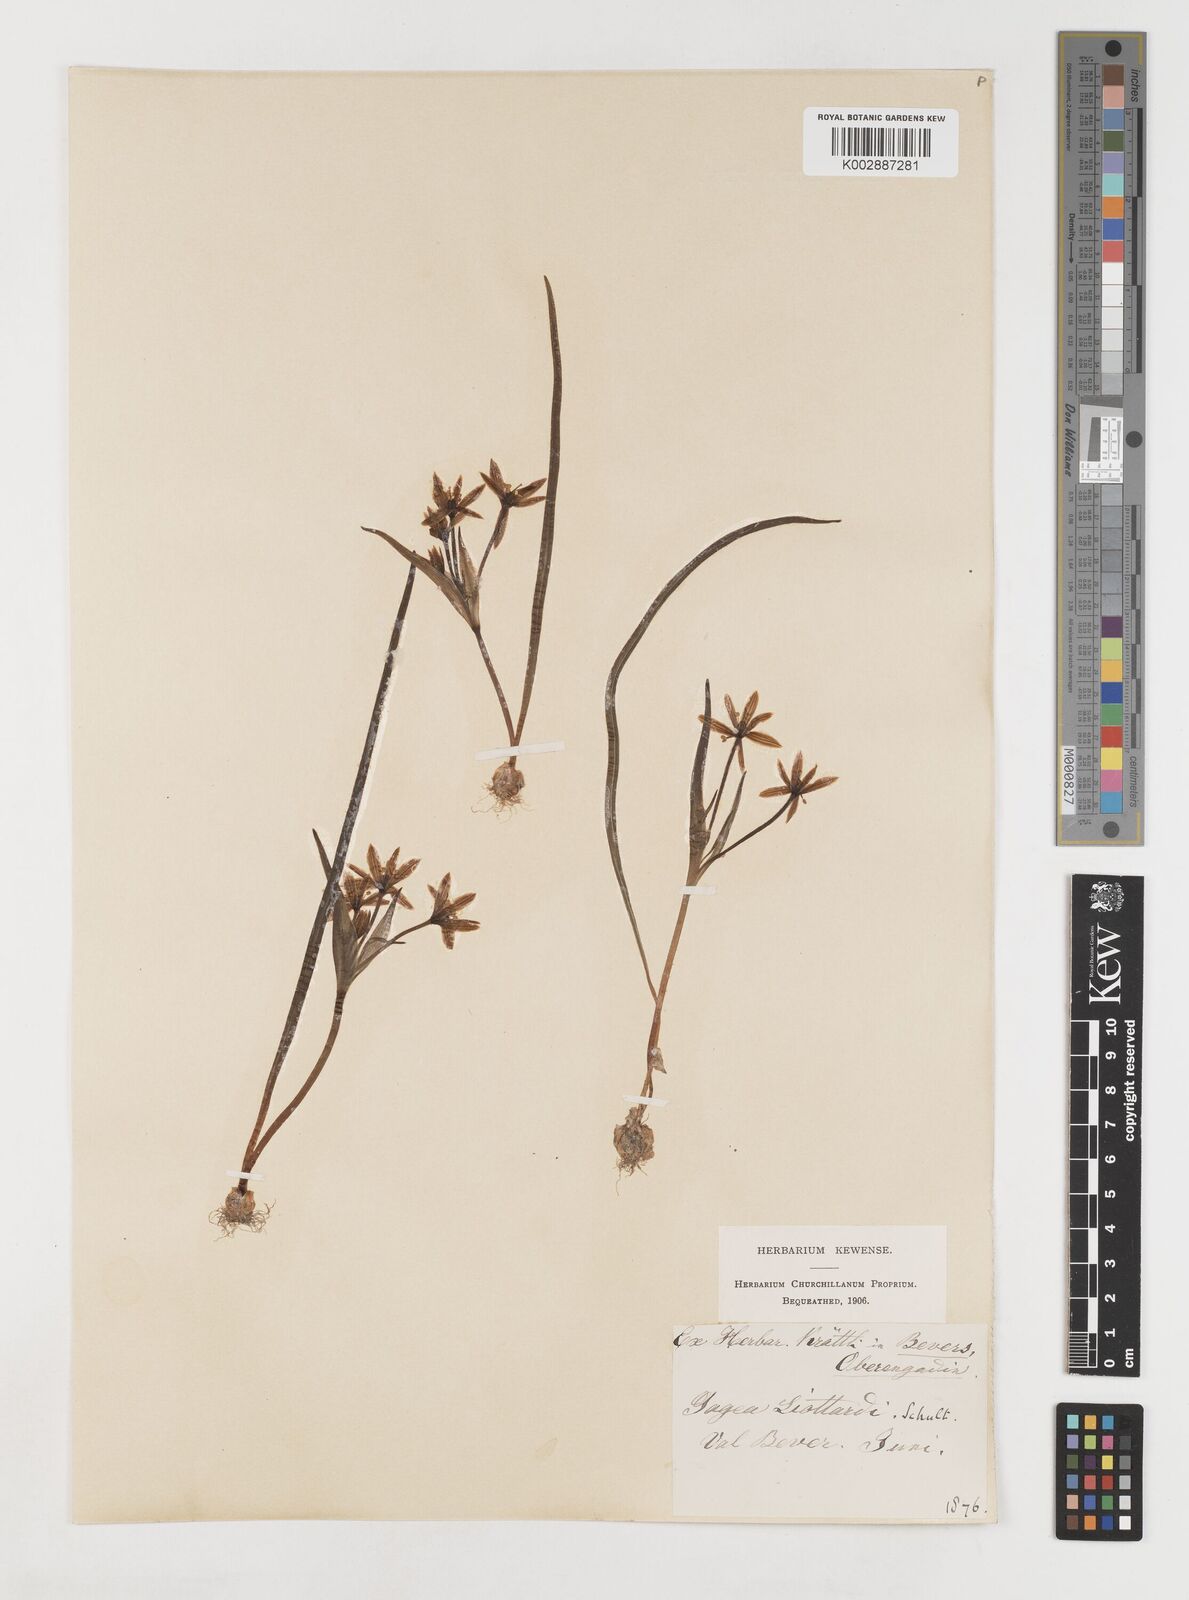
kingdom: Plantae
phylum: Tracheophyta
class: Liliopsida
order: Liliales
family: Liliaceae
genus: Gagea
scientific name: Gagea bohemica
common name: Early star-of-bethlehem
